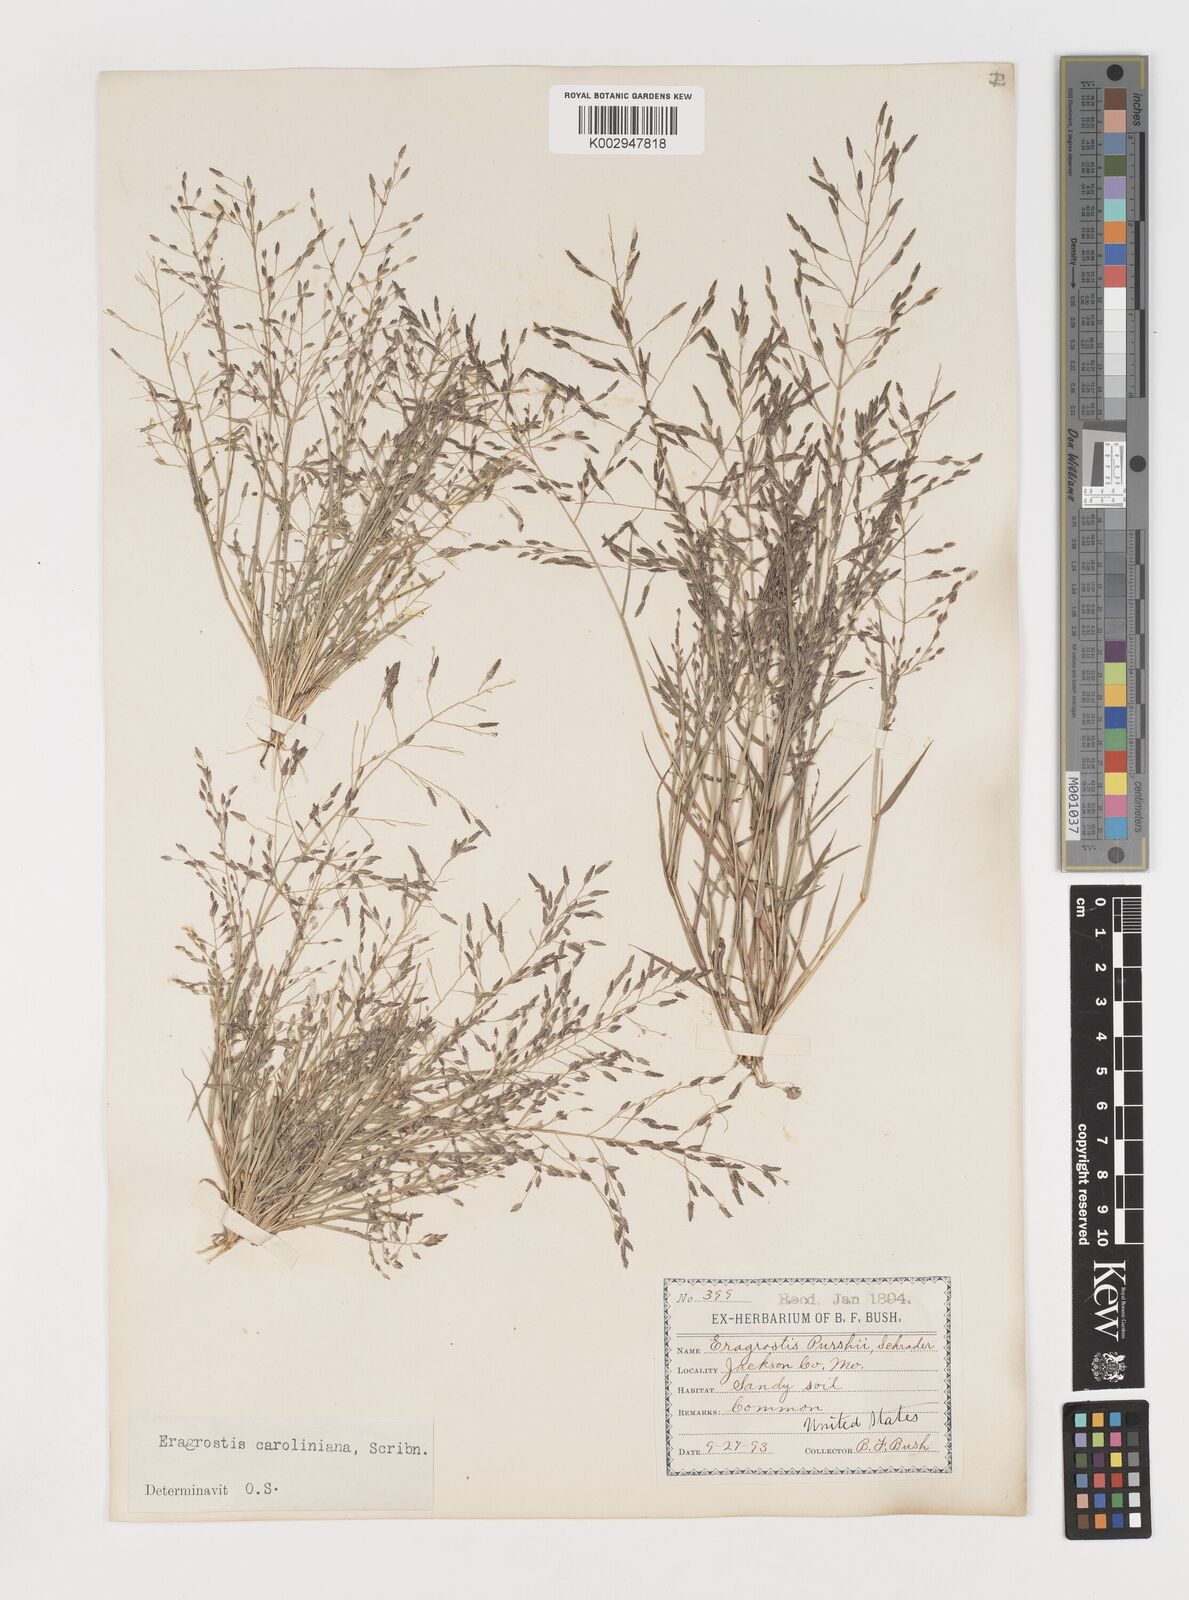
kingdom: Plantae
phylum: Tracheophyta
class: Liliopsida
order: Poales
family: Poaceae
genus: Eragrostis
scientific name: Eragrostis pectinacea
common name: Tufted lovegrass
